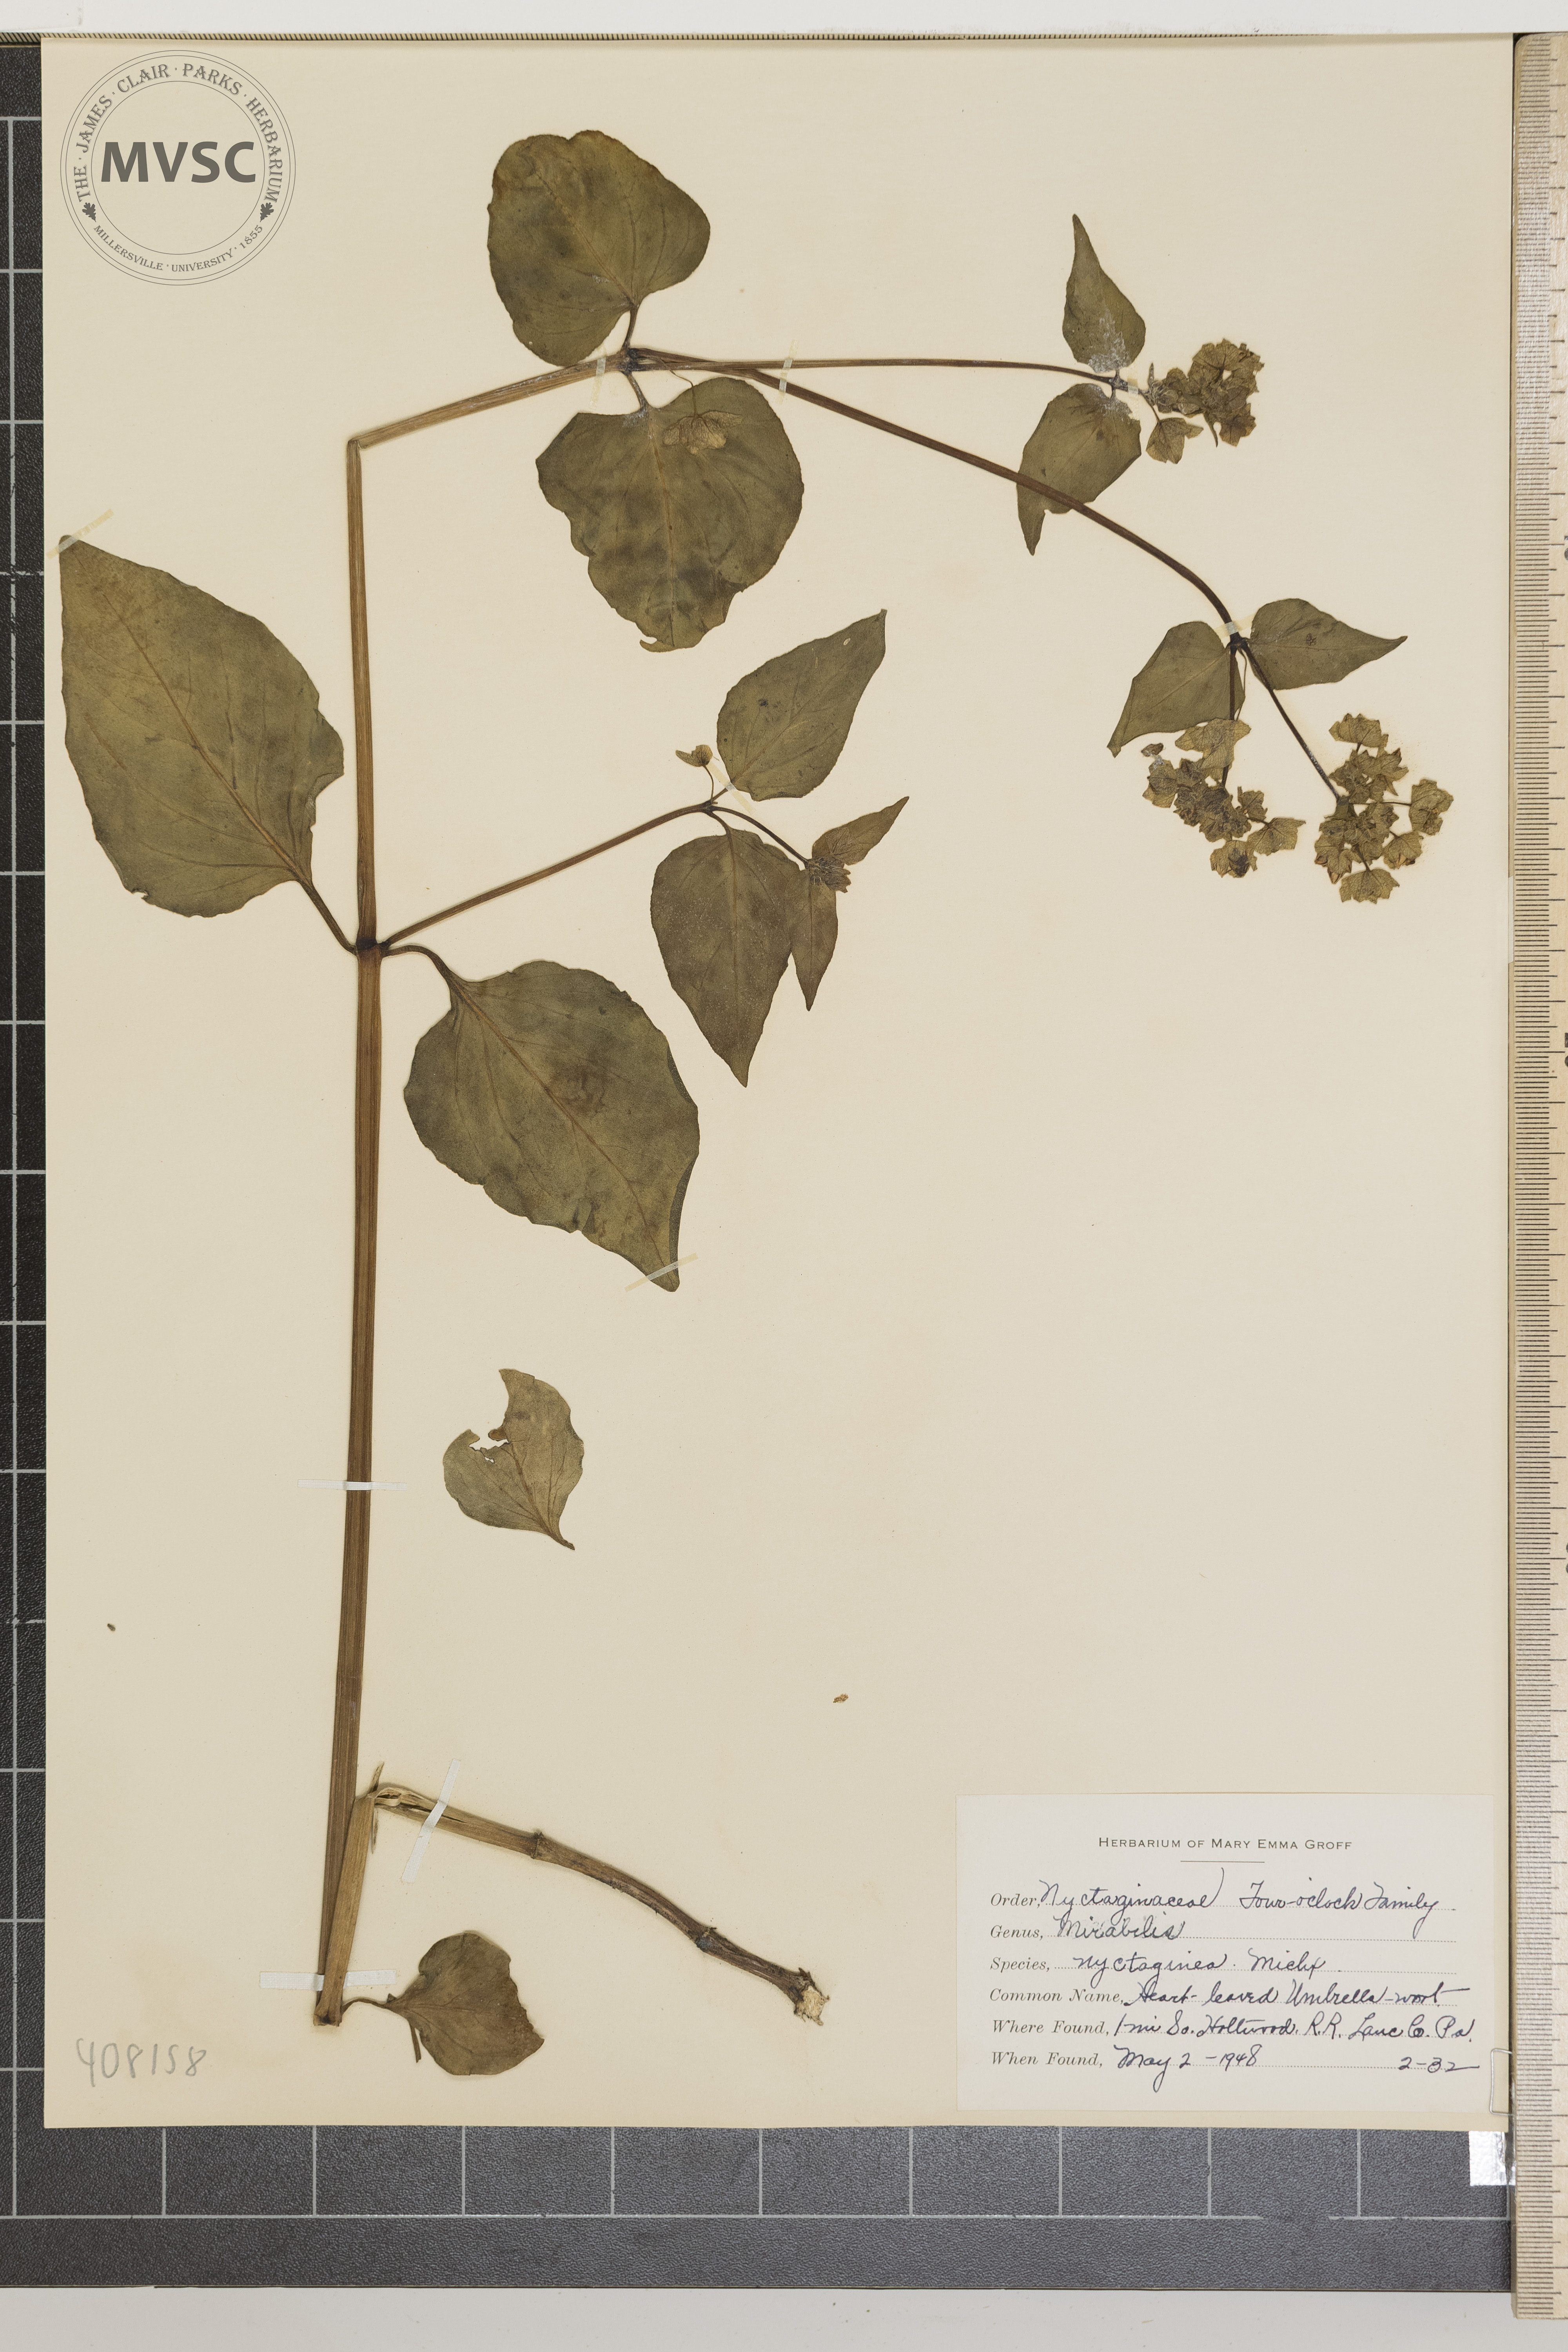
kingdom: Plantae
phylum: Tracheophyta
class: Magnoliopsida
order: Caryophyllales
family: Nyctaginaceae
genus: Mirabilis
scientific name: Mirabilis nyctaginea
